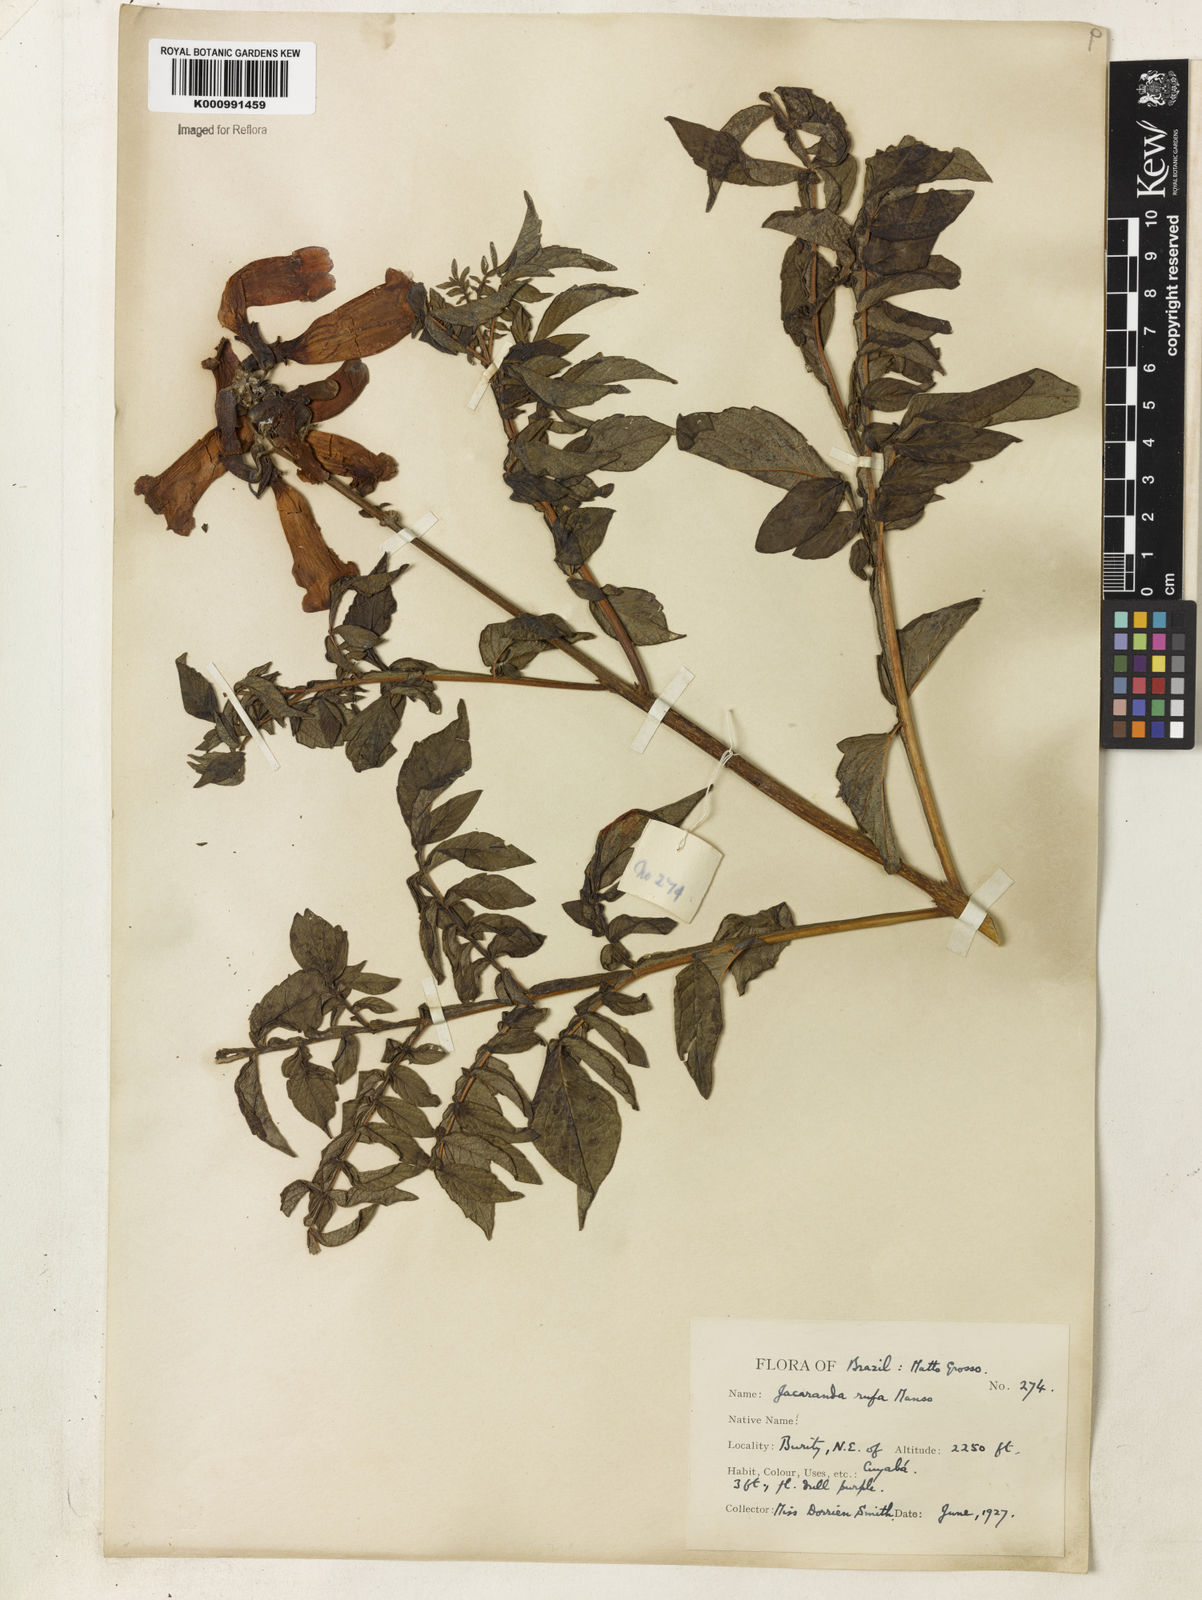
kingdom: Plantae
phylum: Tracheophyta
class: Magnoliopsida
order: Lamiales
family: Bignoniaceae
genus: Jacaranda
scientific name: Jacaranda rufa
